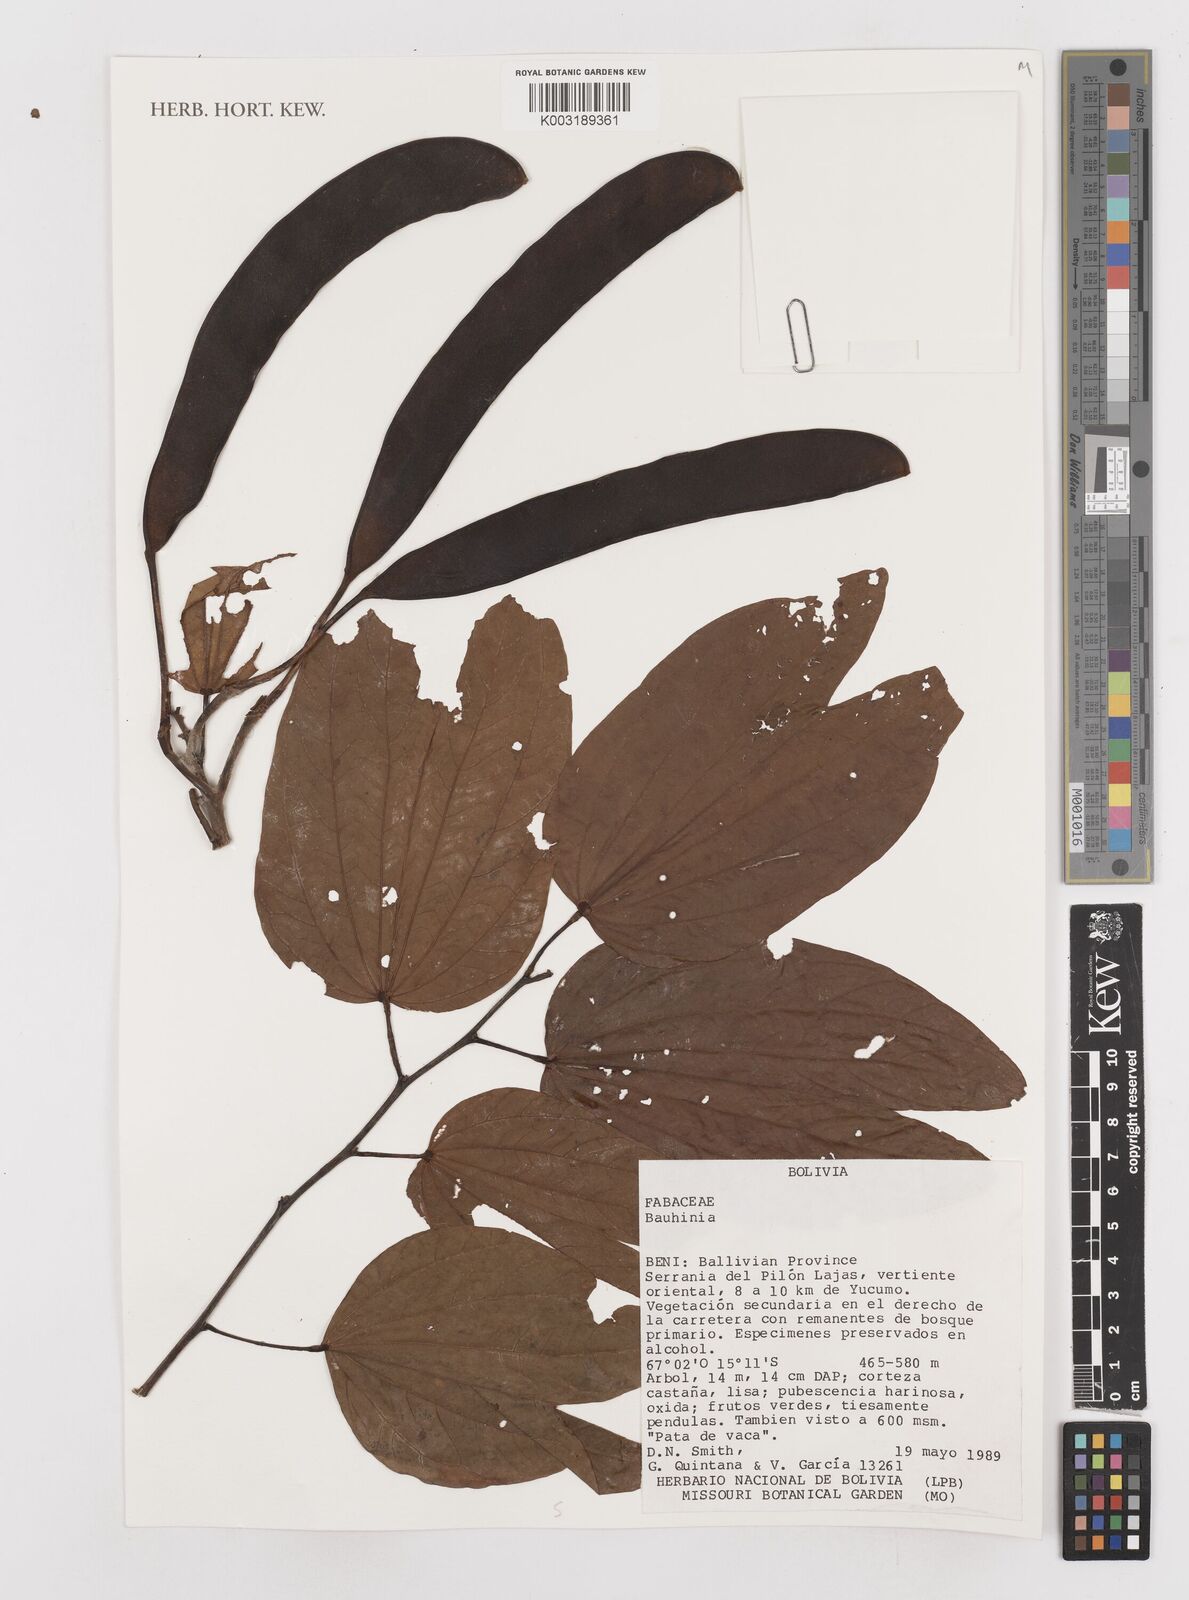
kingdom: Plantae
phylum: Tracheophyta
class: Magnoliopsida
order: Fabales
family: Fabaceae
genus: Bauhinia
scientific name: Bauhinia
